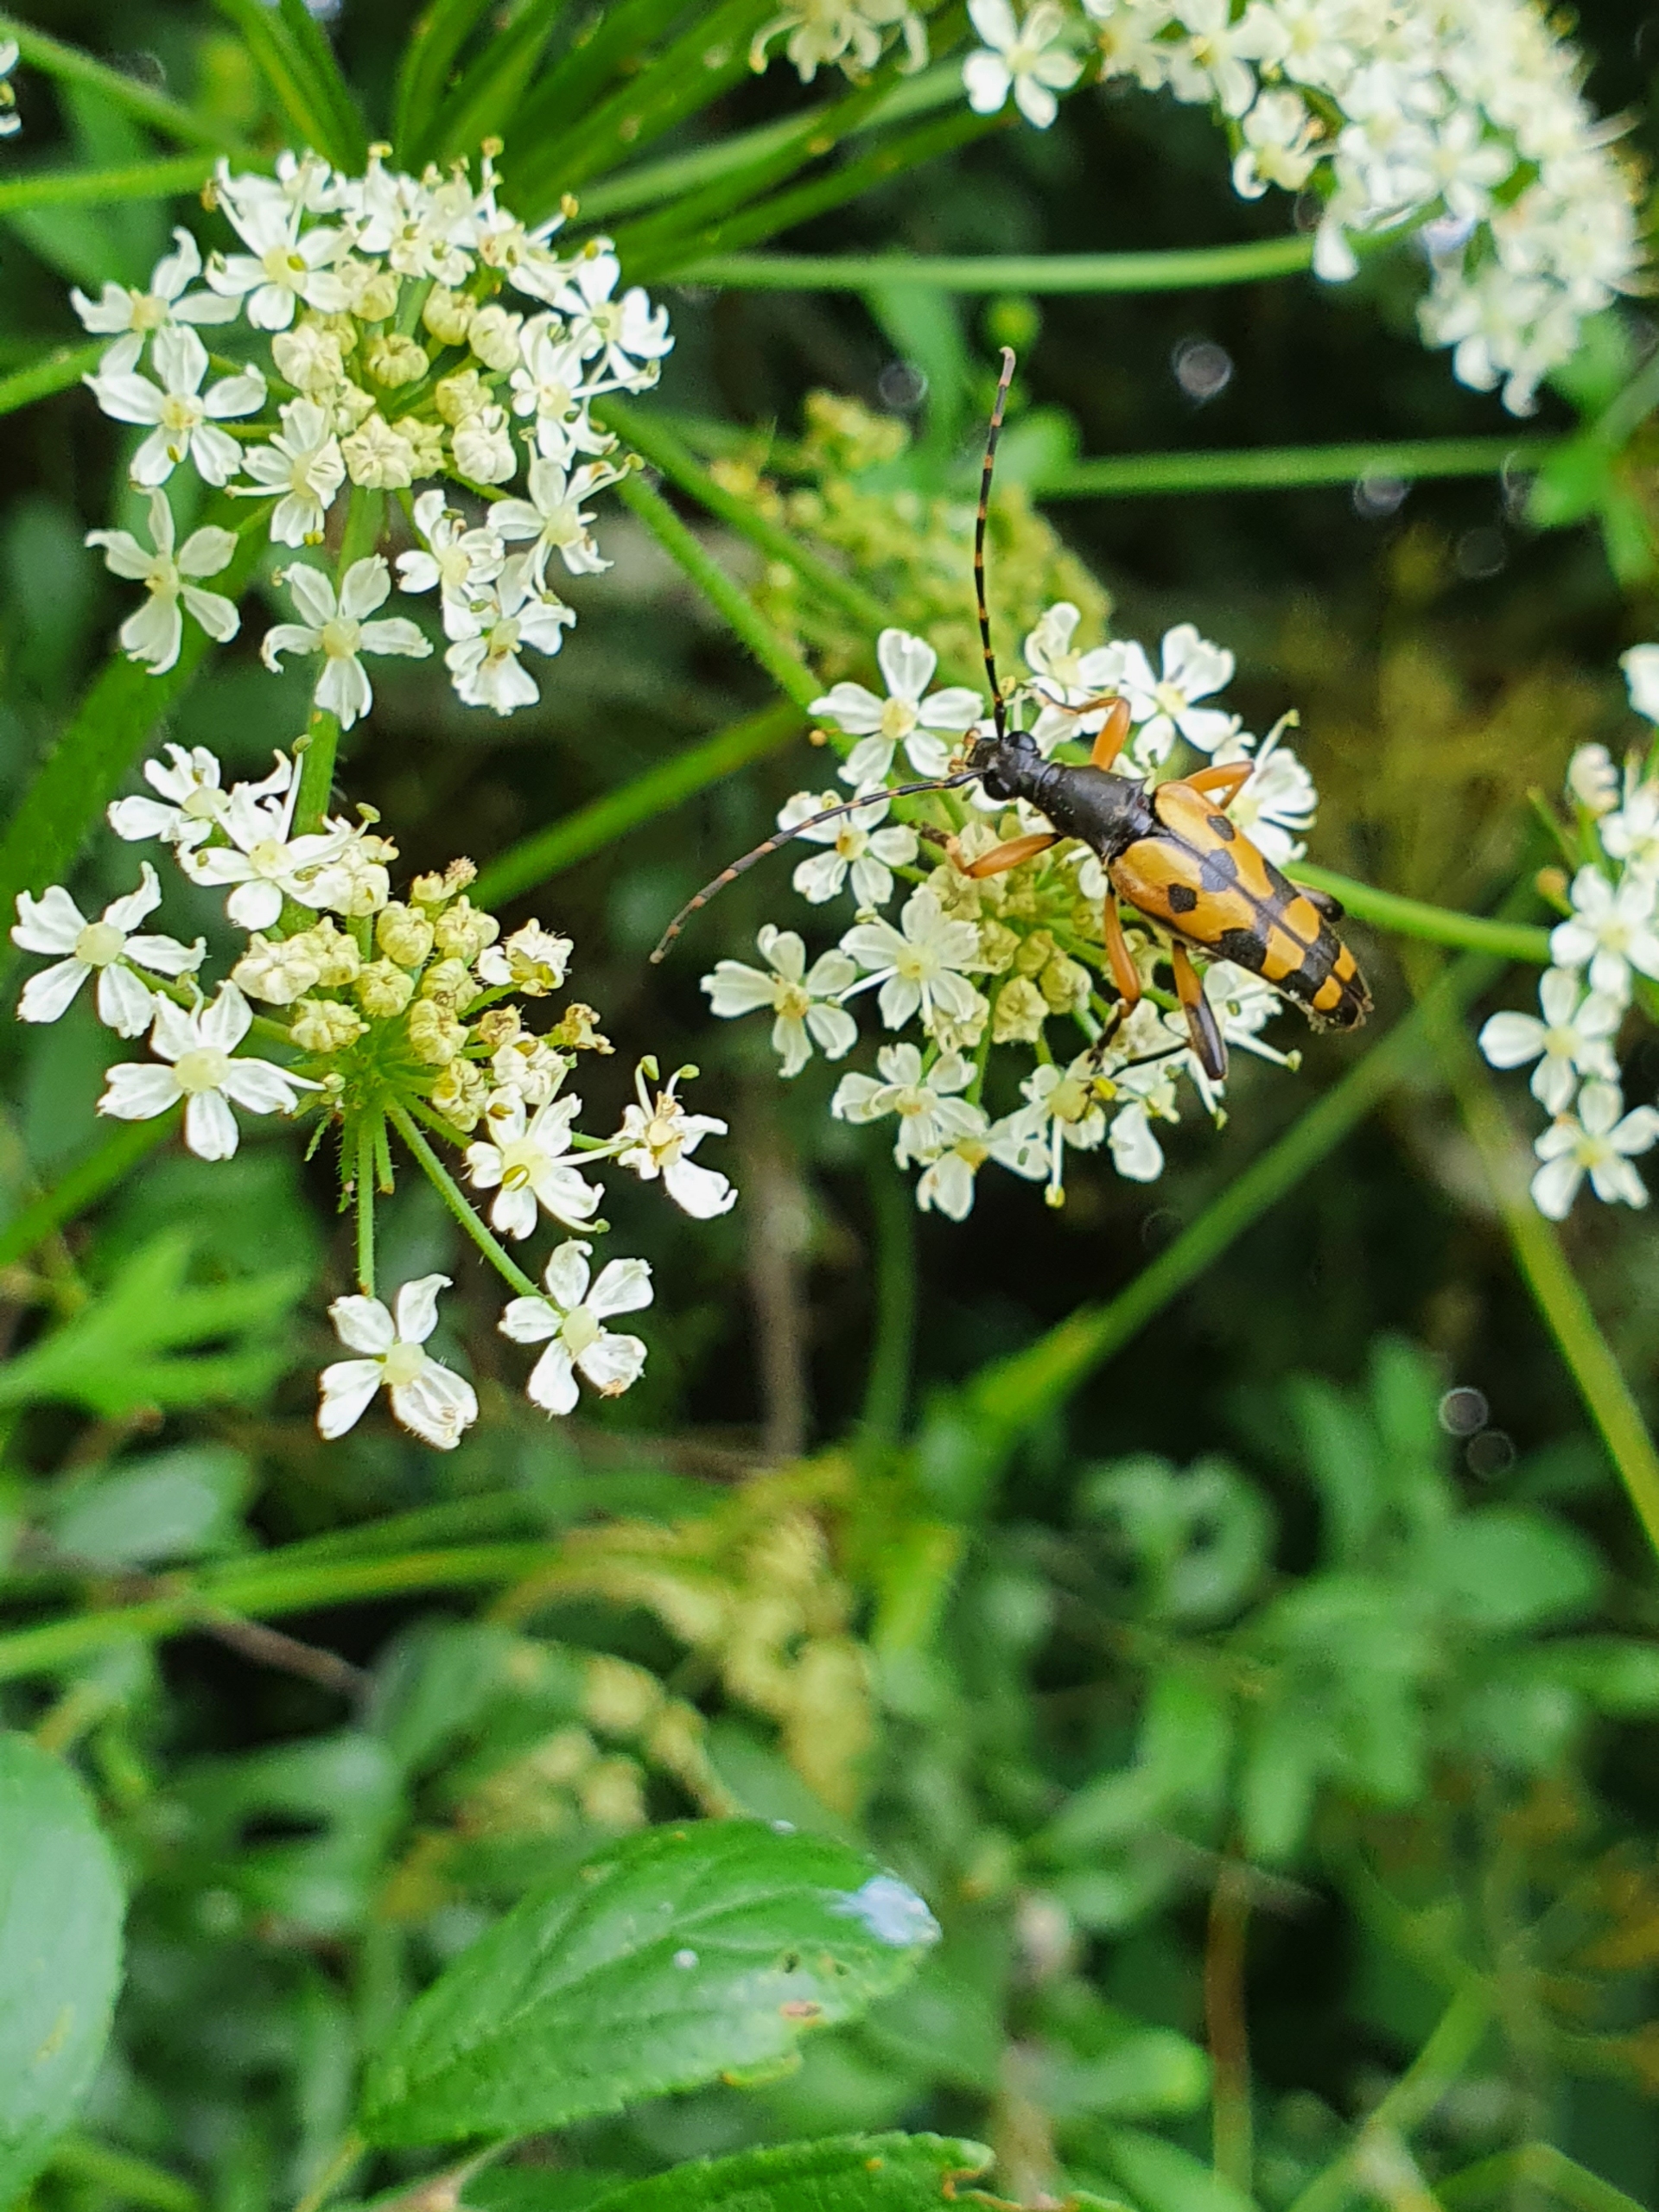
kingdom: Animalia
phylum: Arthropoda
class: Insecta
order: Coleoptera
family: Cerambycidae
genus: Rutpela
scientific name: Rutpela maculata
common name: Sydlig blomsterbuk
